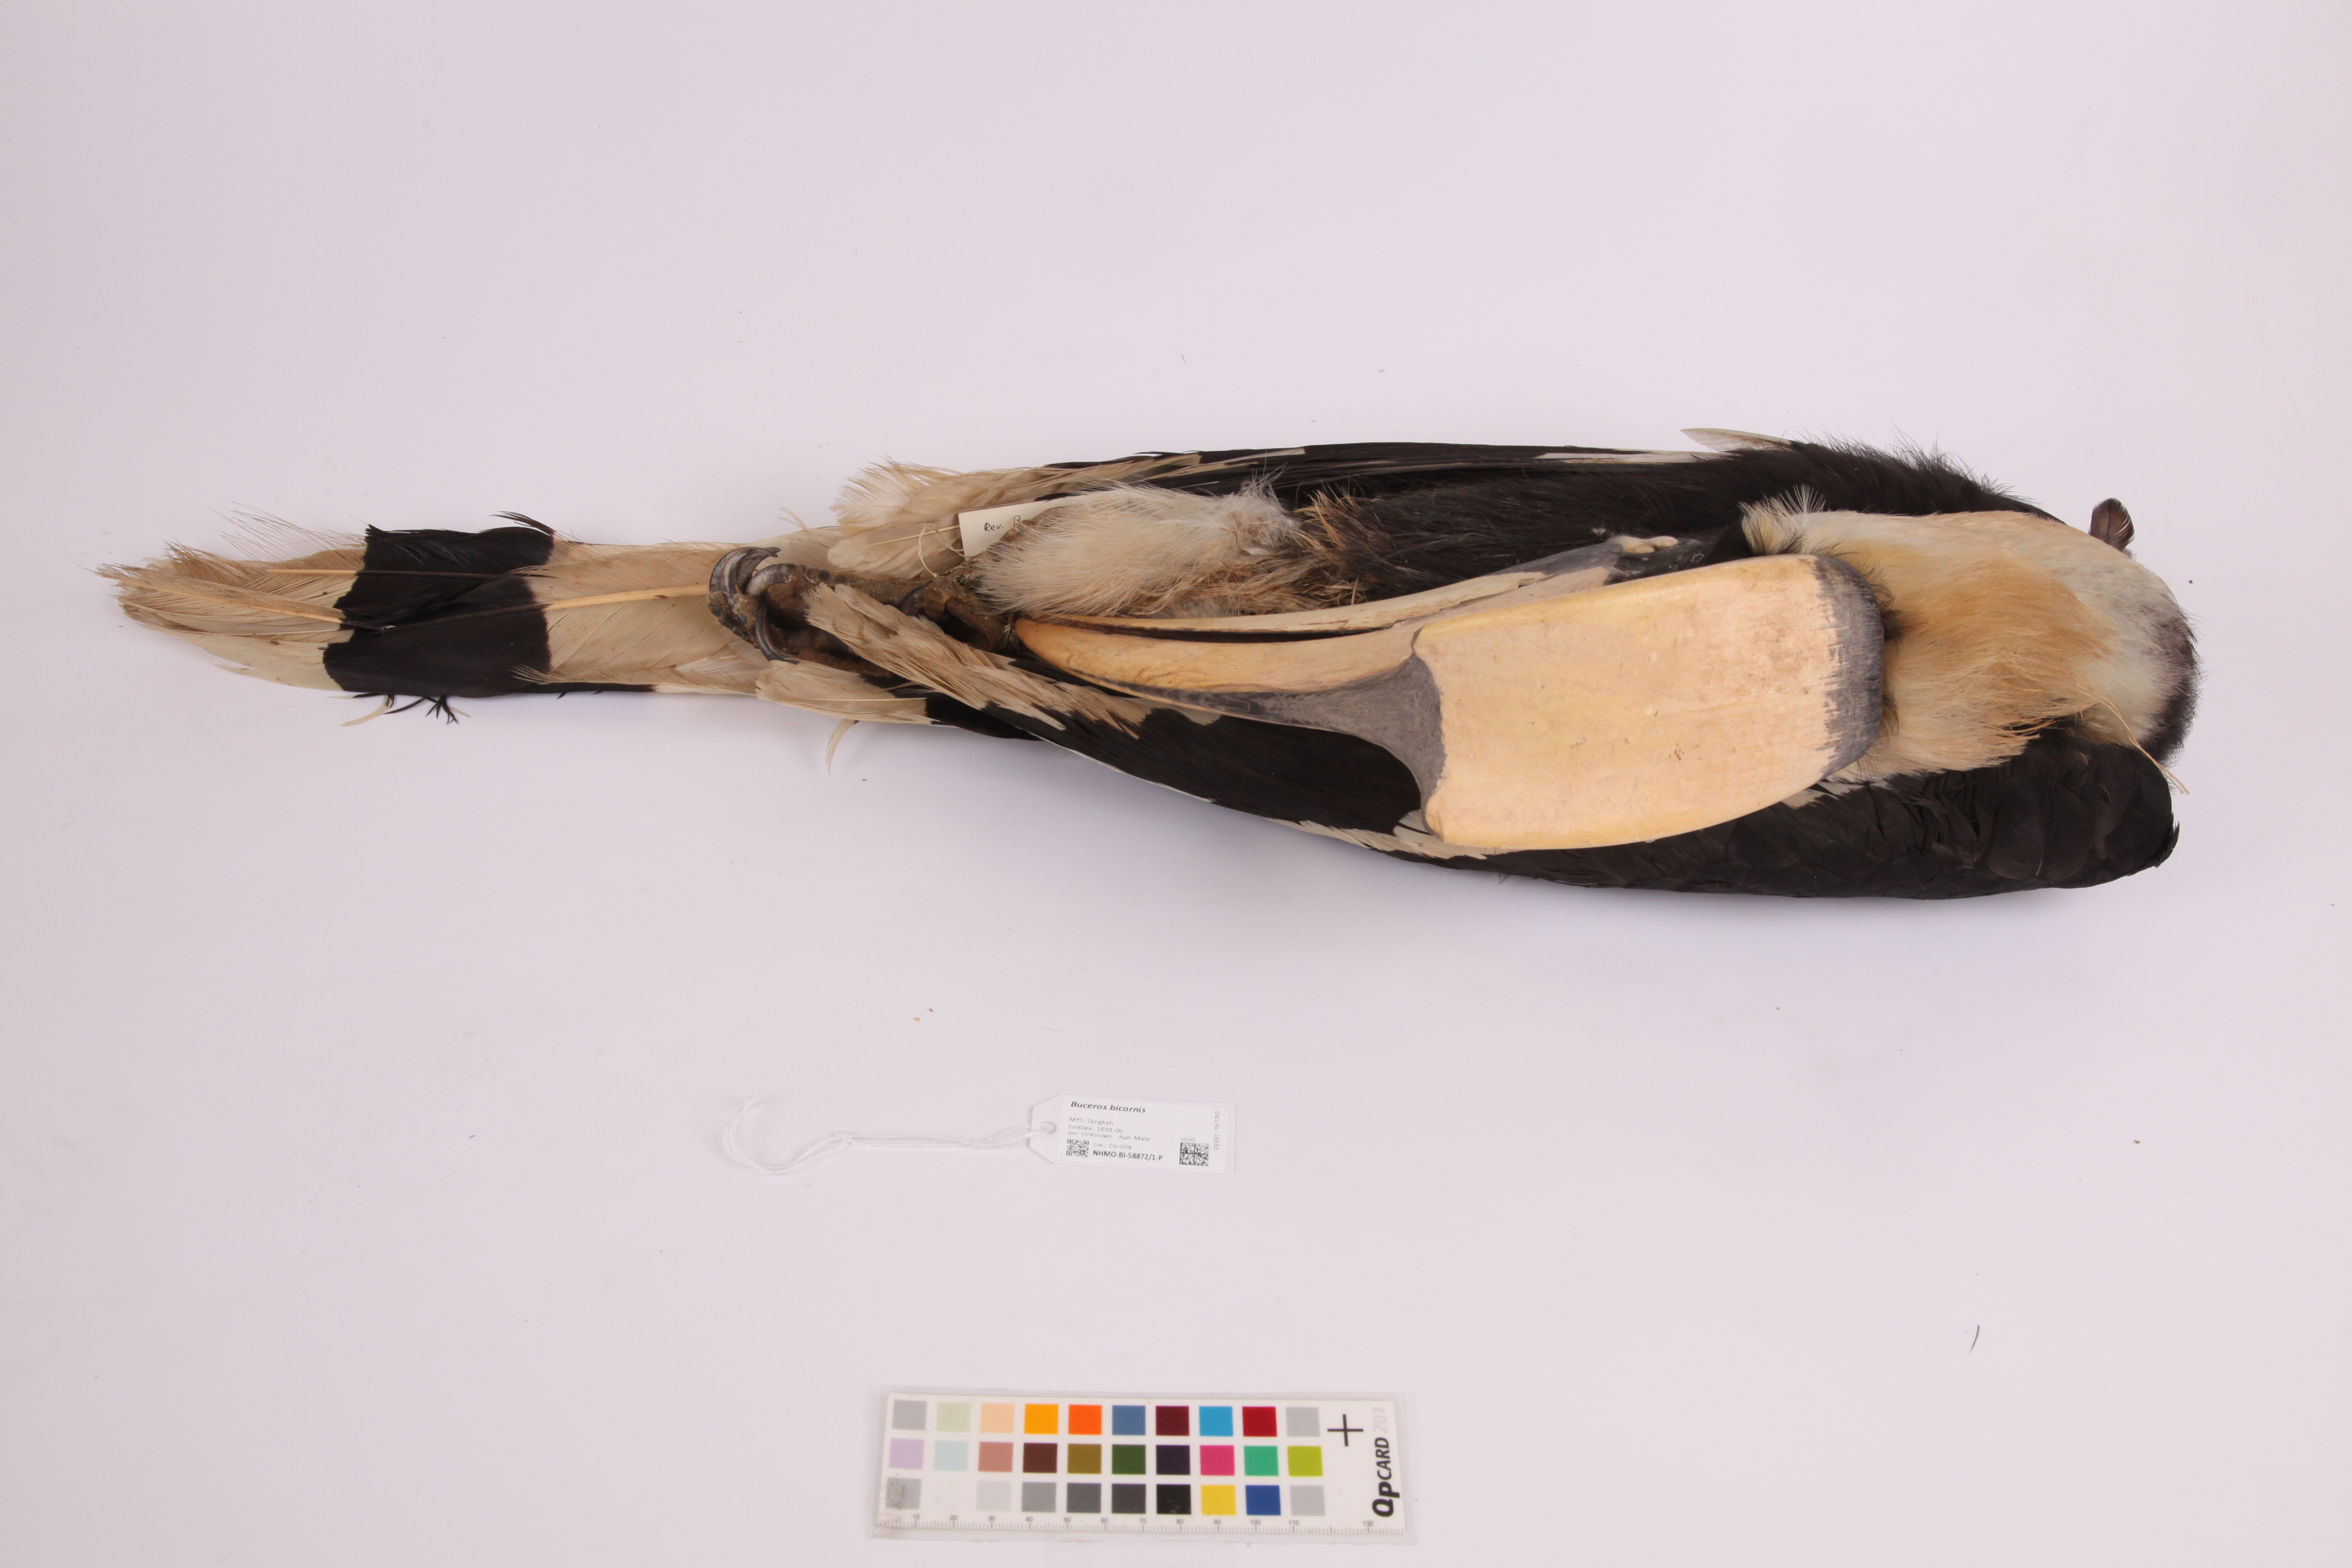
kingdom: Animalia
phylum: Chordata
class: Aves
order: Bucerotiformes
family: Bucerotidae
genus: Buceros
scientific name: Buceros bicornis
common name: Great hornbill
